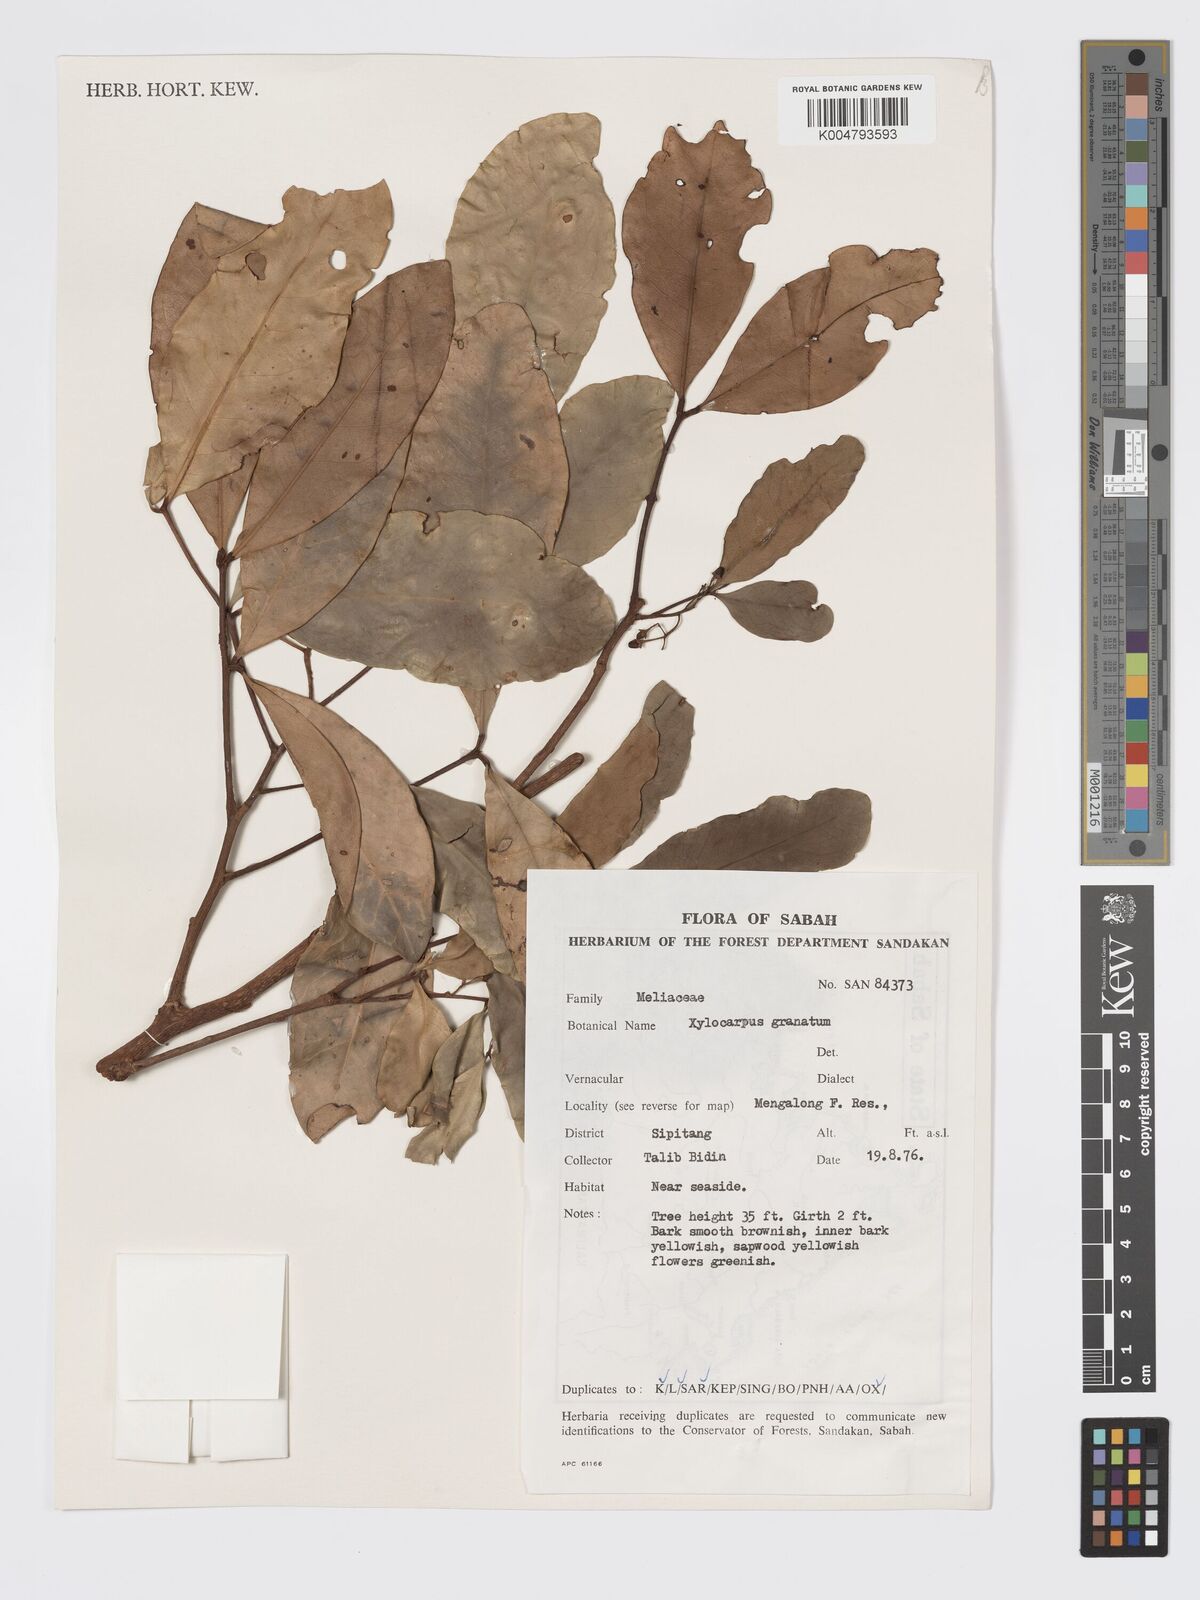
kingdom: Plantae
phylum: Tracheophyta
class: Magnoliopsida
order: Sapindales
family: Meliaceae
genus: Xylocarpus
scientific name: Xylocarpus granatum
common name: Apple mangrove
